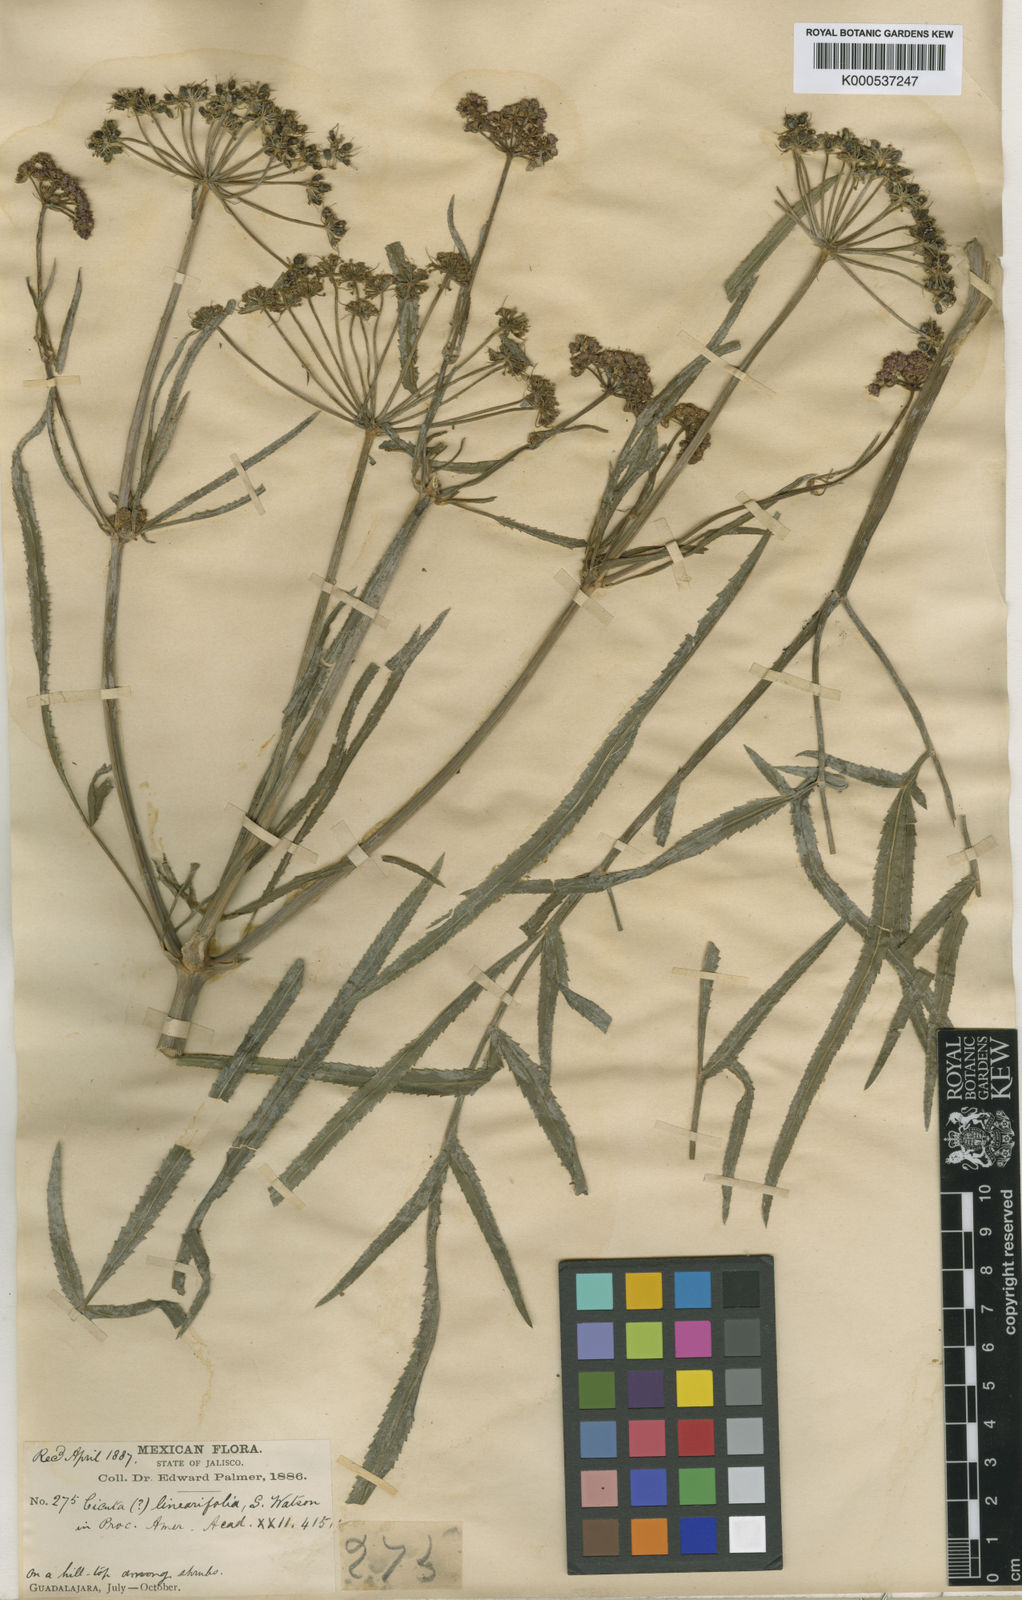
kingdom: Plantae
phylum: Tracheophyta
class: Magnoliopsida
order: Apiales
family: Apiaceae
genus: Prionosciadium
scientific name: Prionosciadium linearifolium
